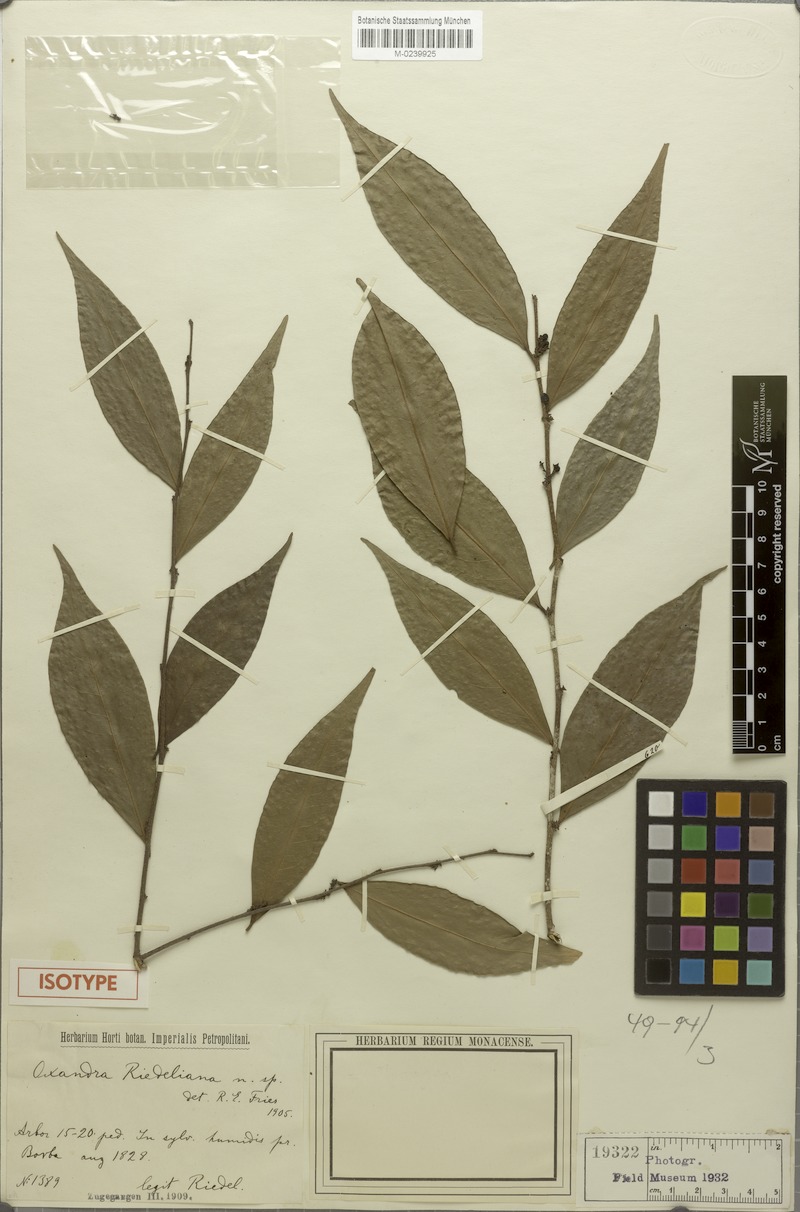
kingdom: Plantae
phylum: Tracheophyta
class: Magnoliopsida
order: Magnoliales
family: Annonaceae
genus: Oxandra
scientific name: Oxandra riedeliana
